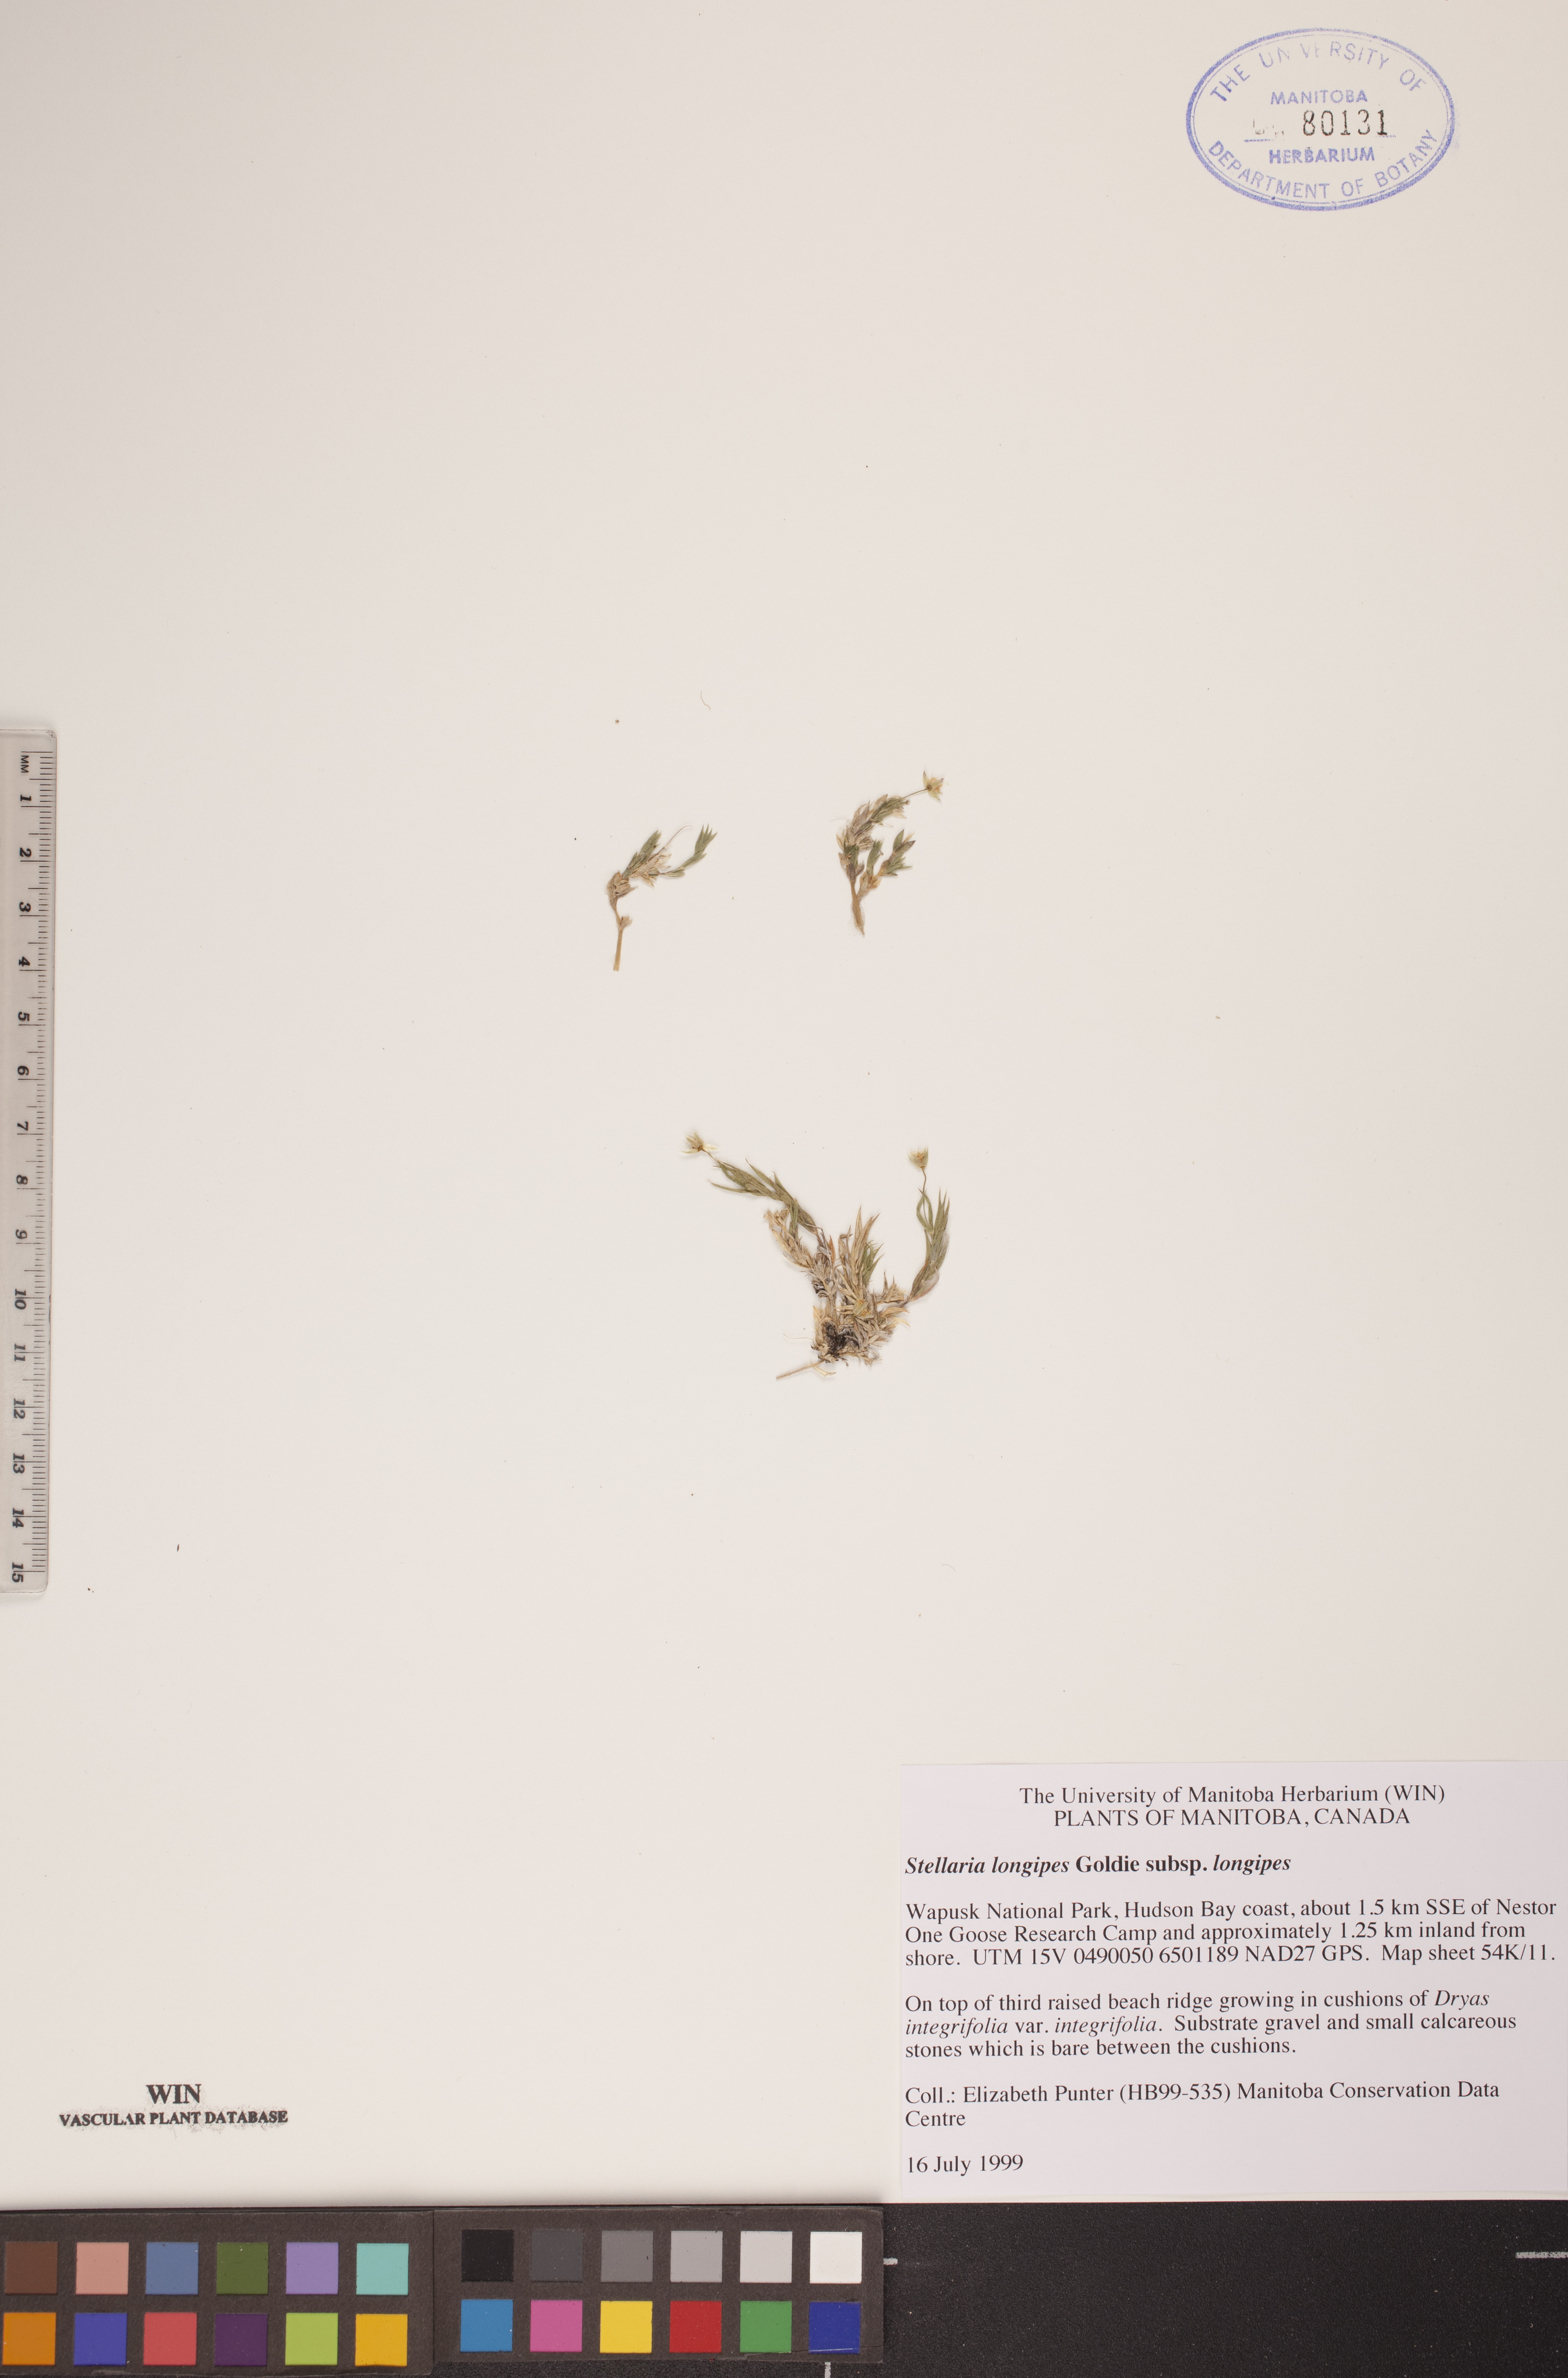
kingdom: Plantae
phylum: Tracheophyta
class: Magnoliopsida
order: Caryophyllales
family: Caryophyllaceae
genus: Stellaria
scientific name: Stellaria longipes
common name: Goldie's starwort
